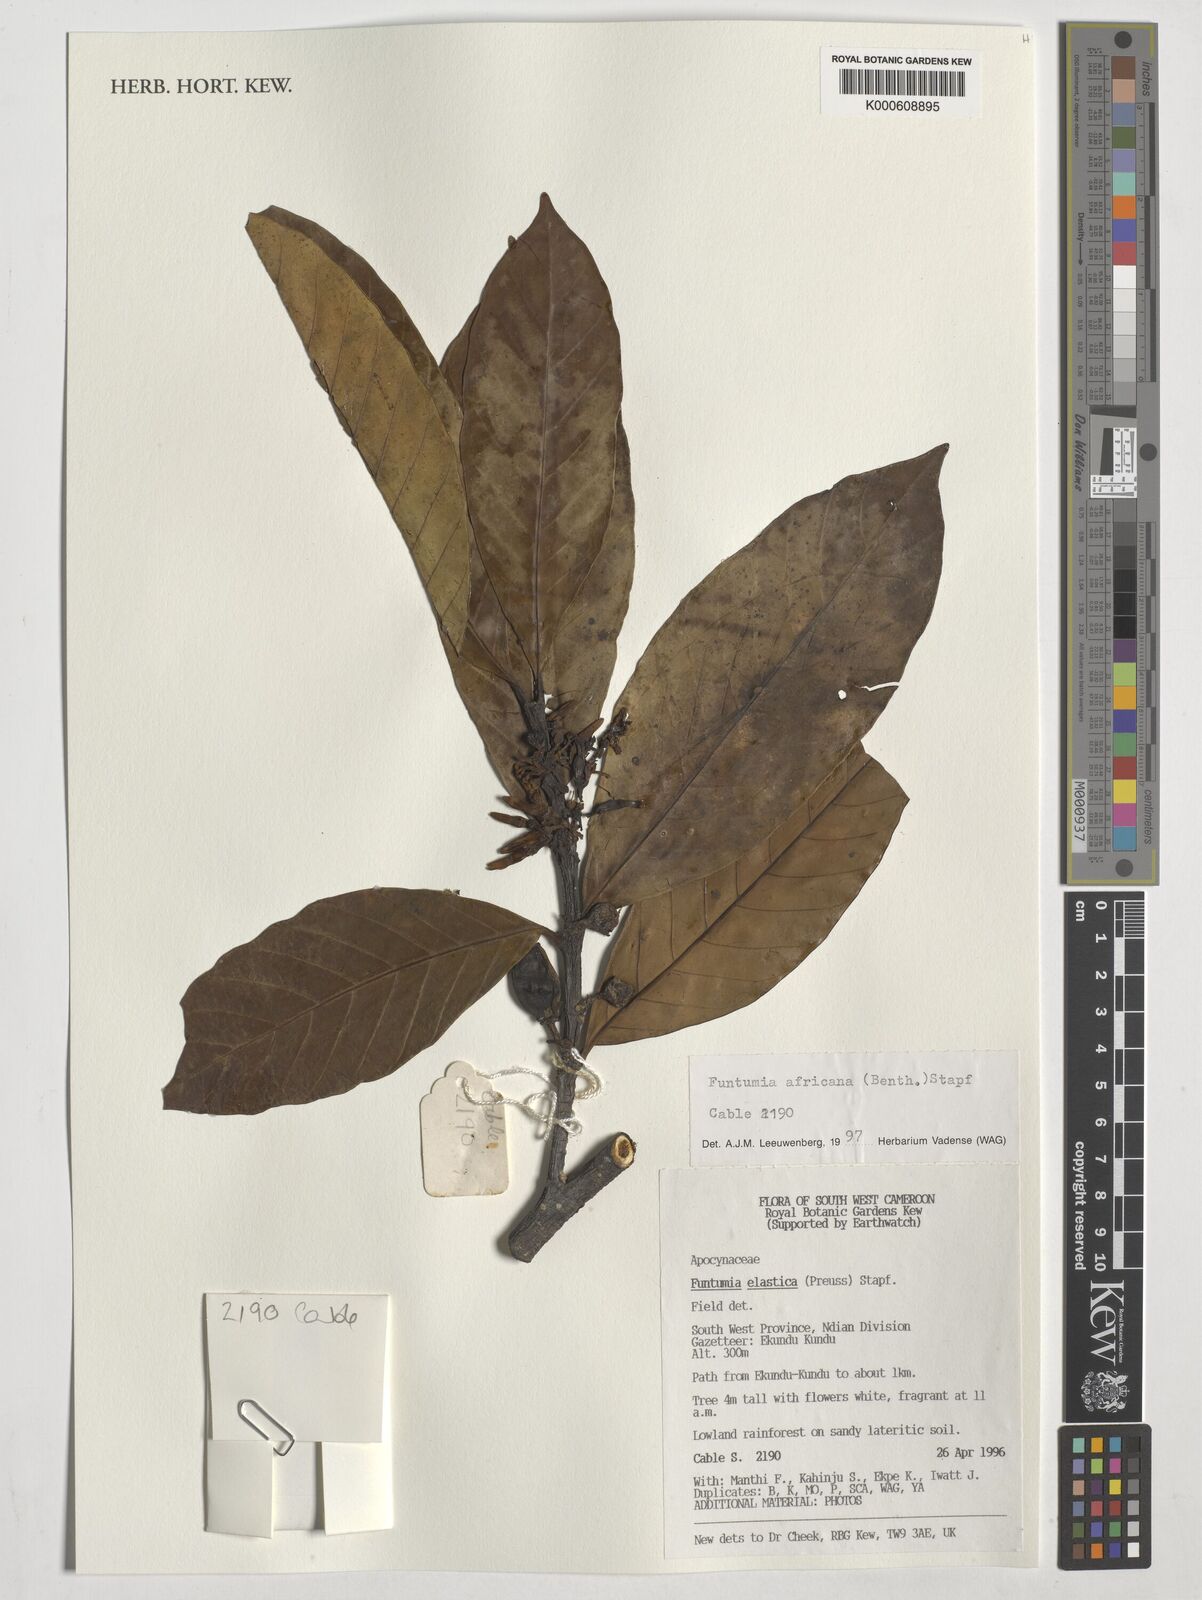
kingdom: Plantae
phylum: Tracheophyta
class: Magnoliopsida
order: Gentianales
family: Apocynaceae
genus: Funtumia
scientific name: Funtumia africana
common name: Lagos-rubber
